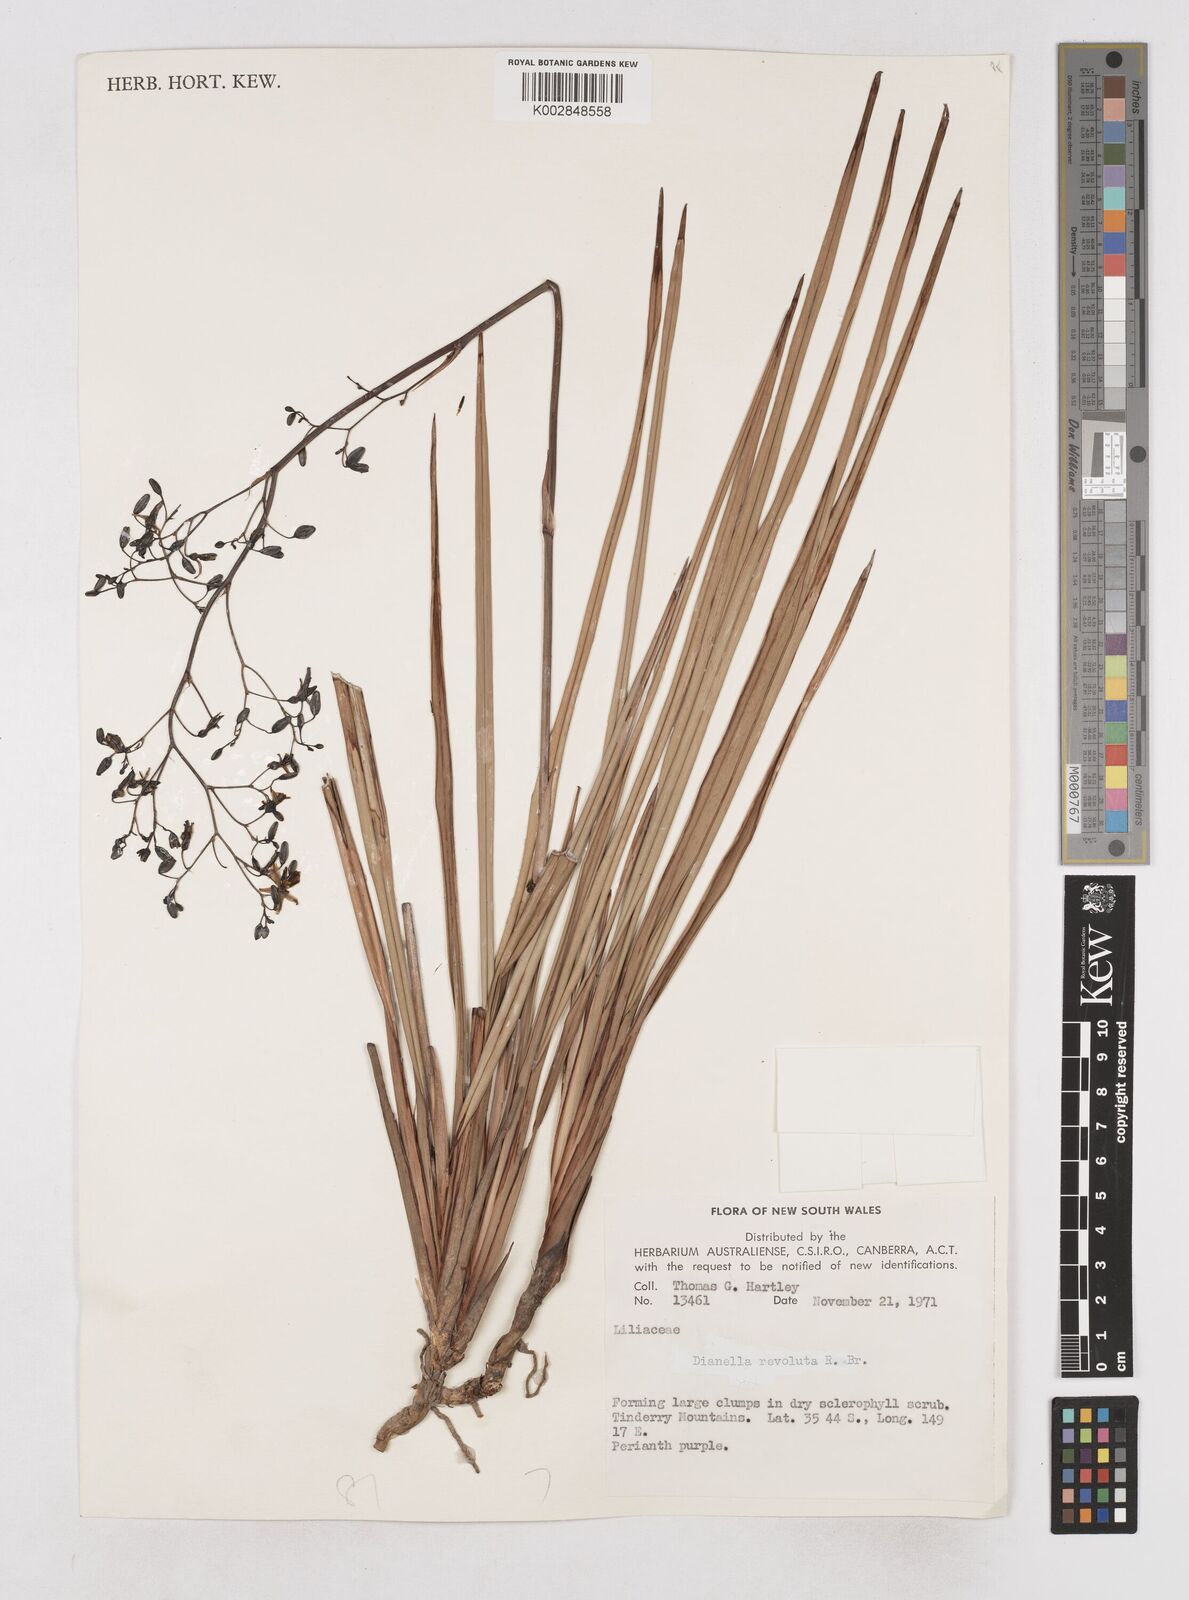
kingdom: Plantae
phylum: Tracheophyta
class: Liliopsida
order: Asparagales
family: Asphodelaceae
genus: Dianella
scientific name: Dianella revoluta
